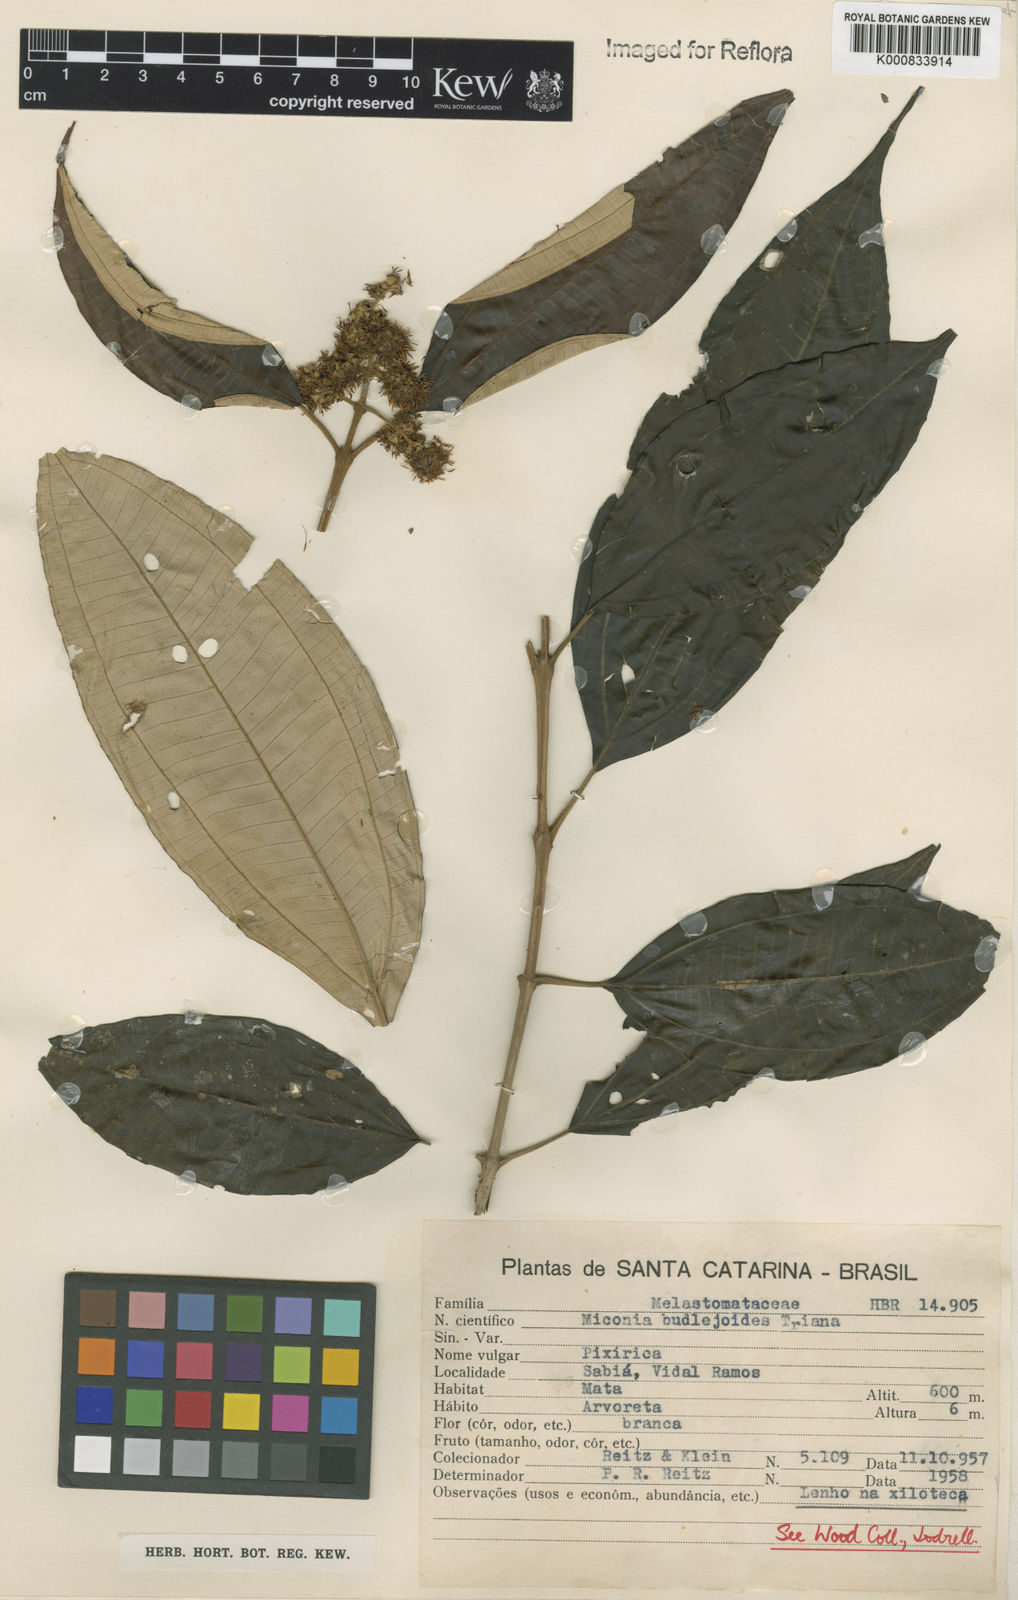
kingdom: Plantae
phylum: Tracheophyta
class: Magnoliopsida
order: Myrtales
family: Melastomataceae
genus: Miconia
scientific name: Miconia buddlejoides
